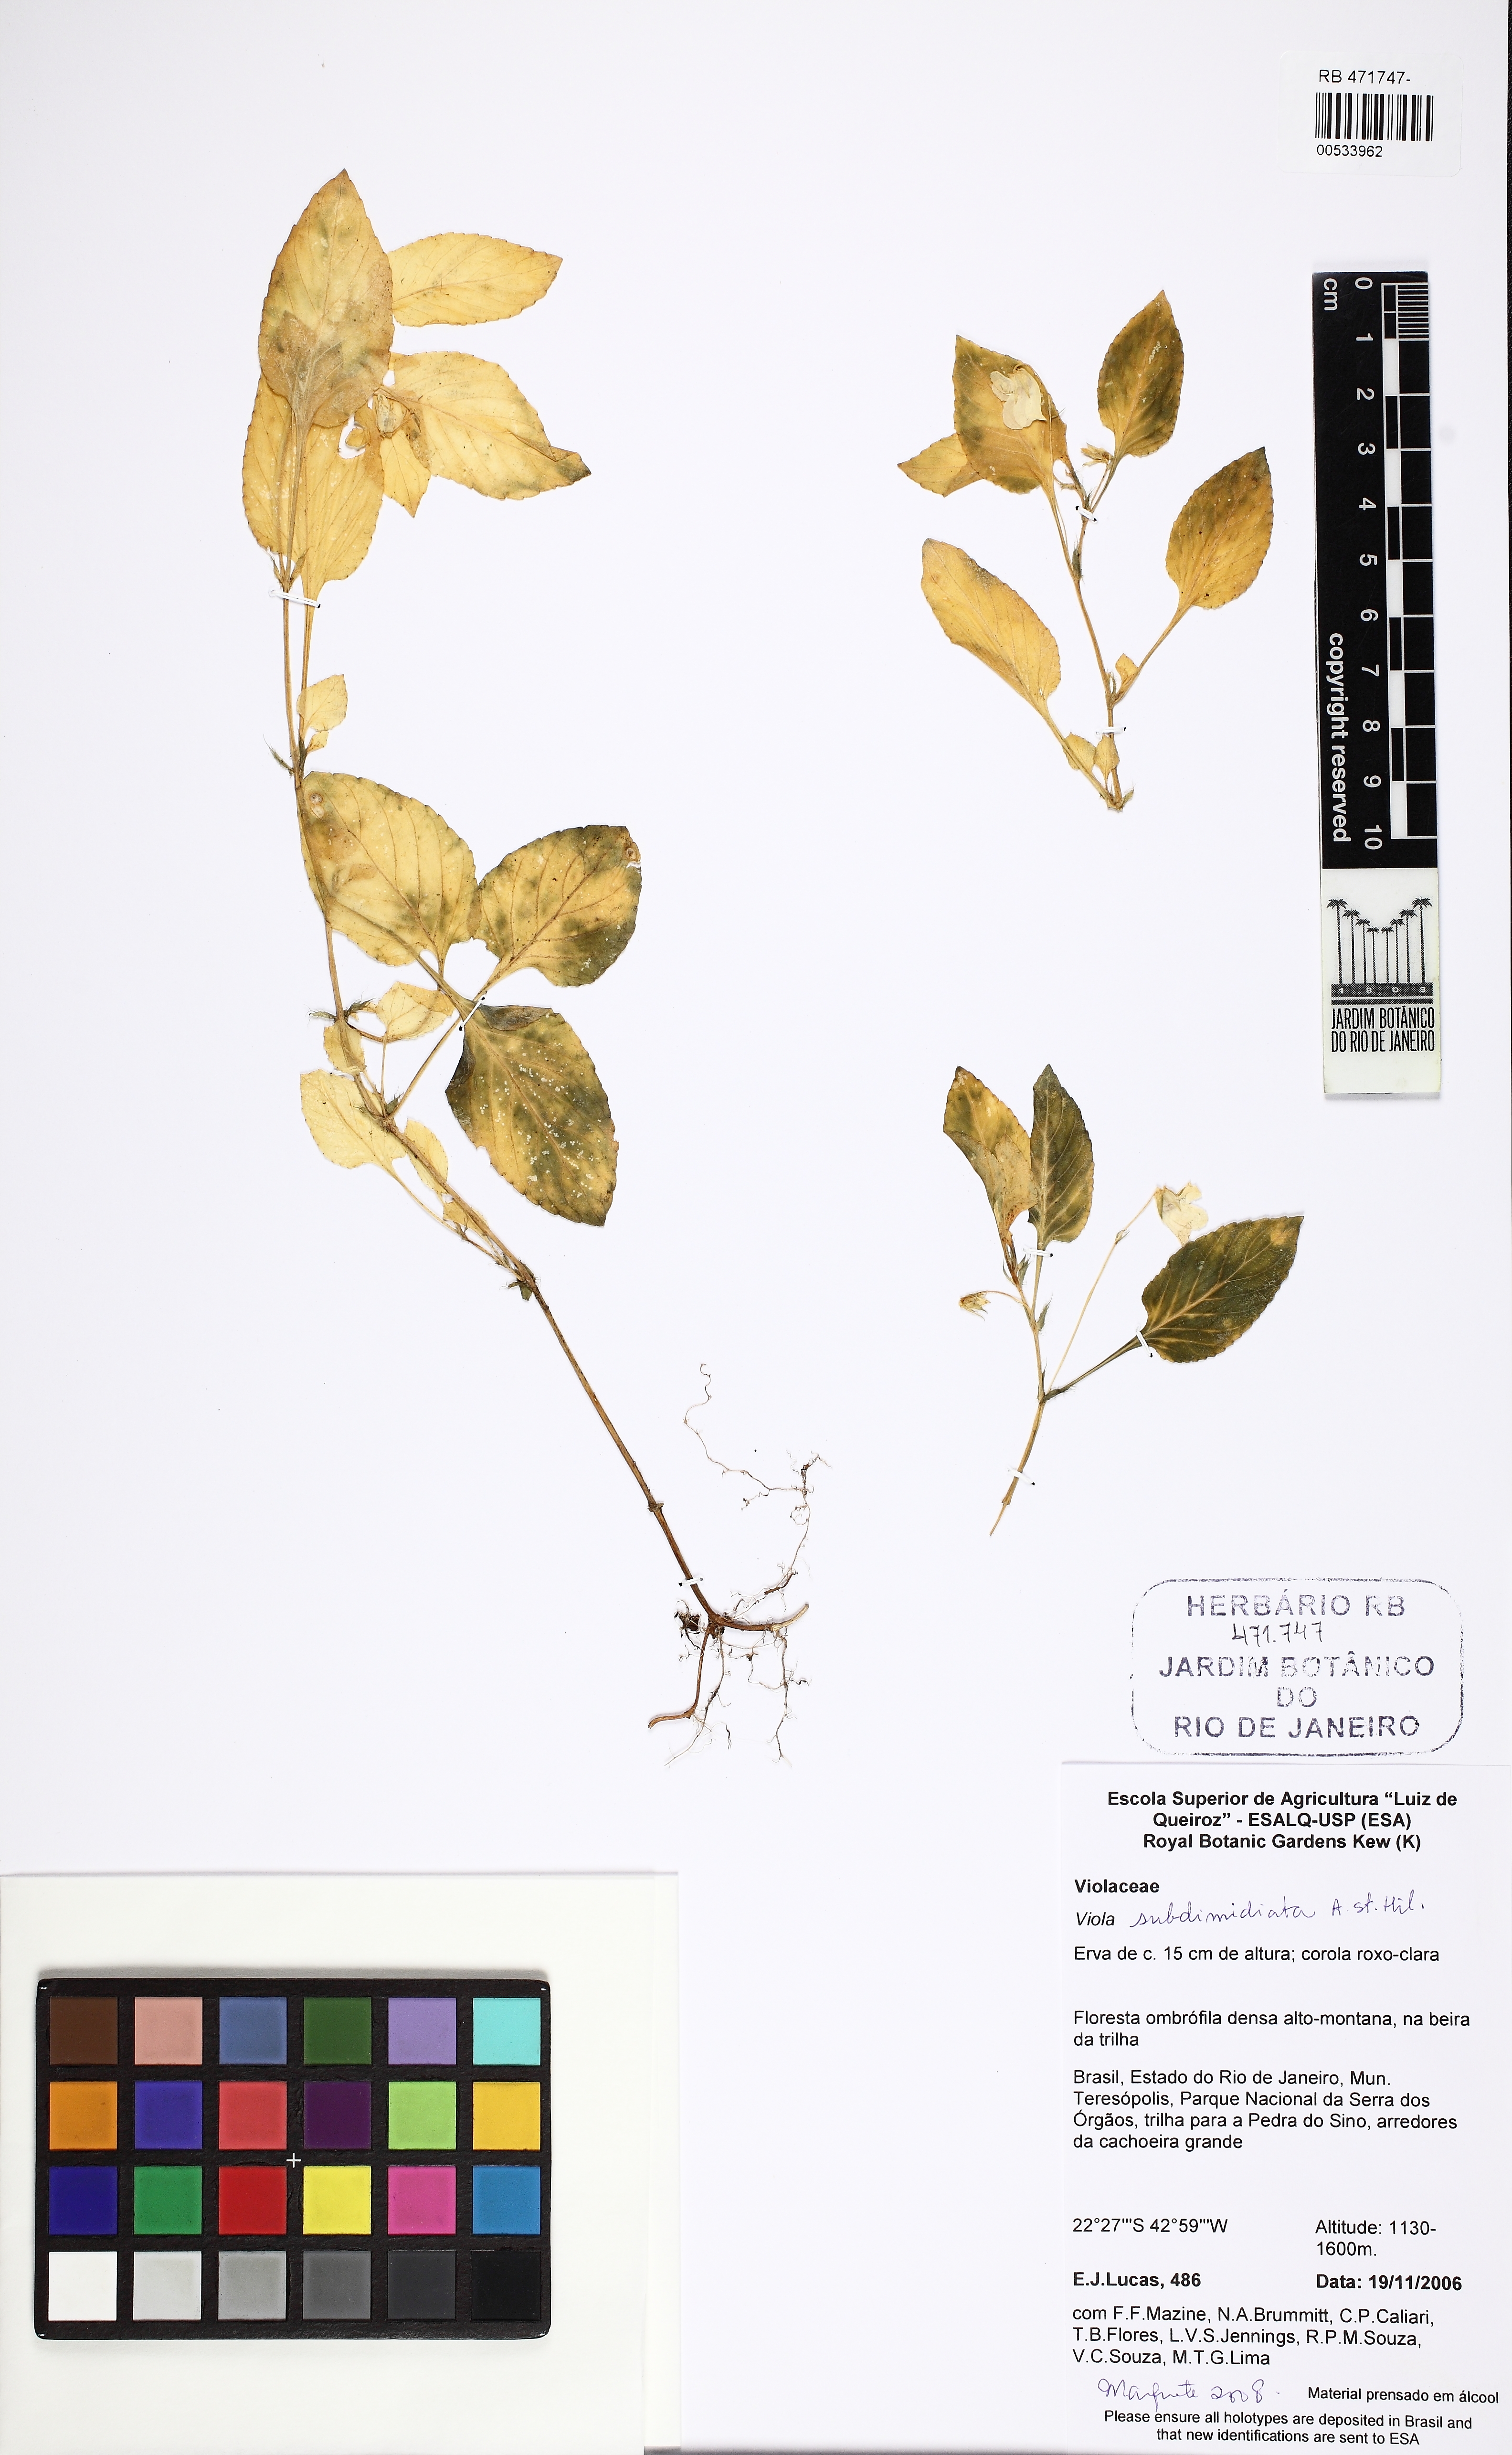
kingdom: Plantae
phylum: Tracheophyta
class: Magnoliopsida
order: Malpighiales
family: Violaceae
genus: Viola
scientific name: Viola subdimidiata
